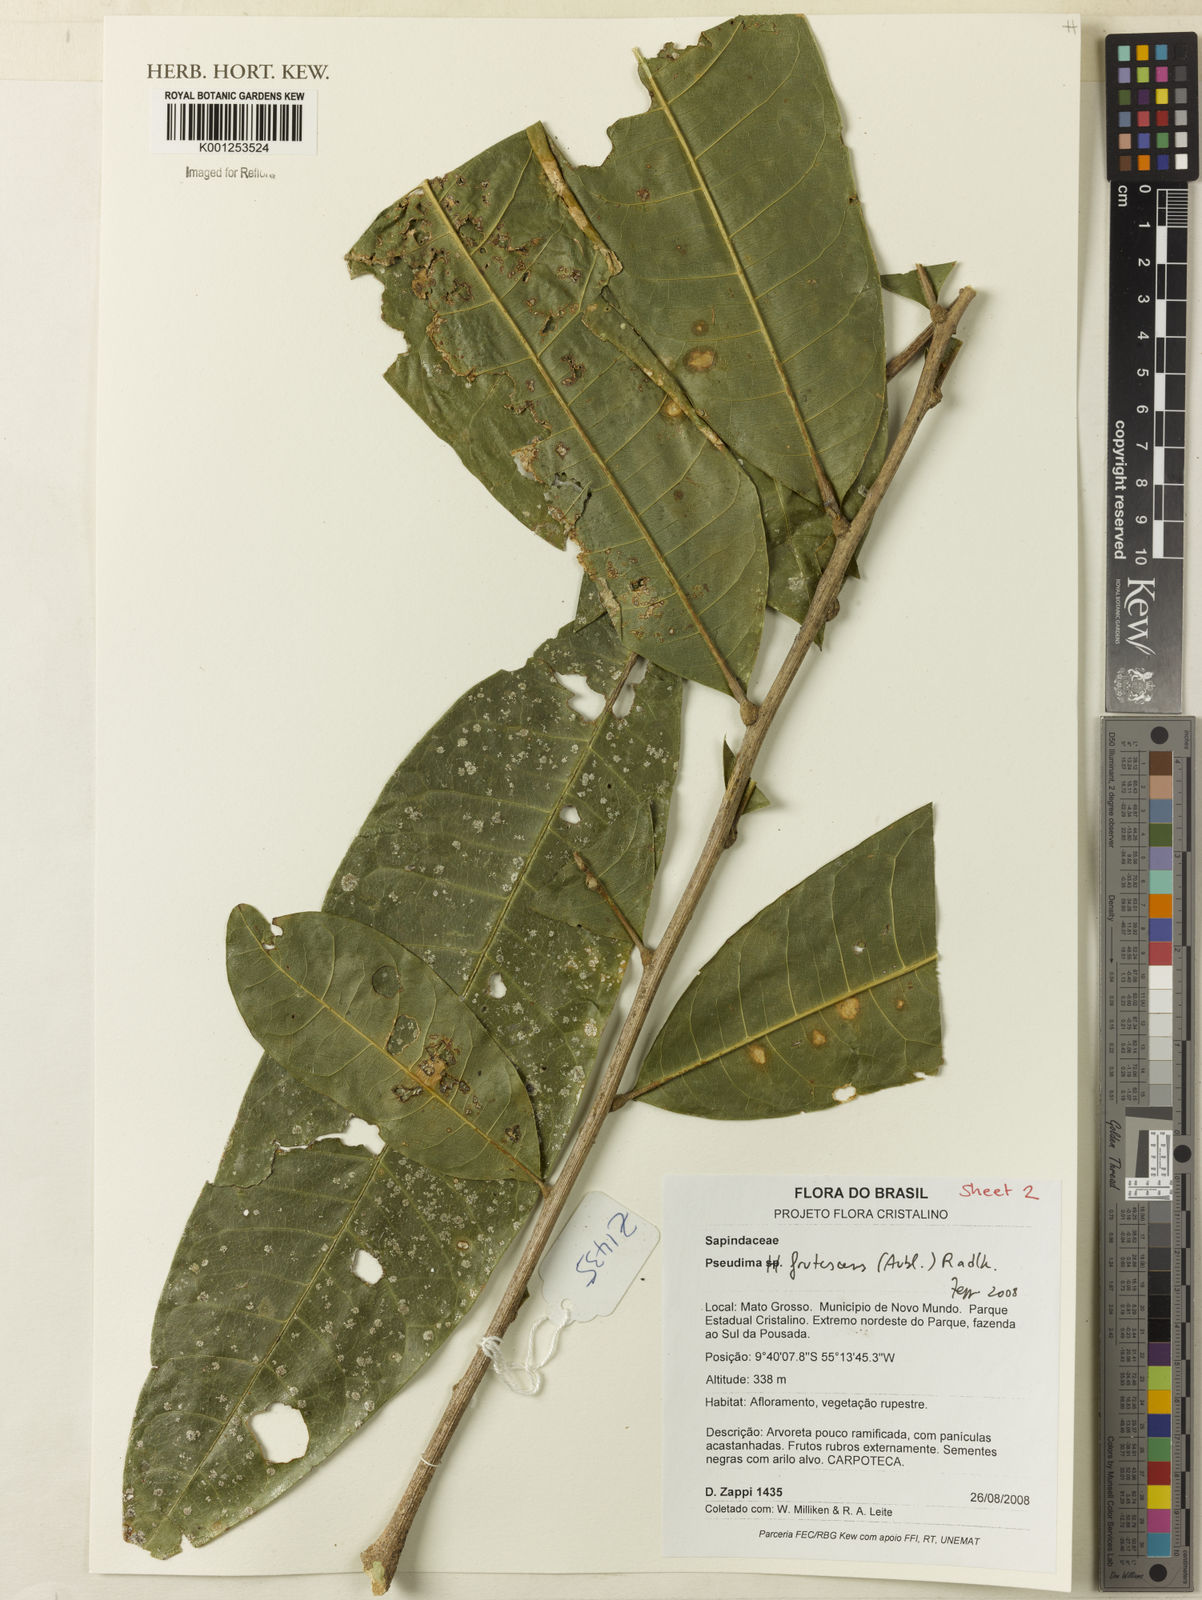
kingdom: Plantae
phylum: Tracheophyta
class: Magnoliopsida
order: Sapindales
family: Sapindaceae
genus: Pseudima
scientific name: Pseudima frutescens
